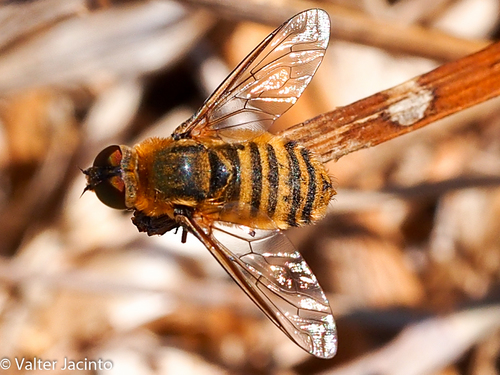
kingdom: Animalia
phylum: Arthropoda
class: Insecta
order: Diptera
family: Bombyliidae
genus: Villa
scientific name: Villa
